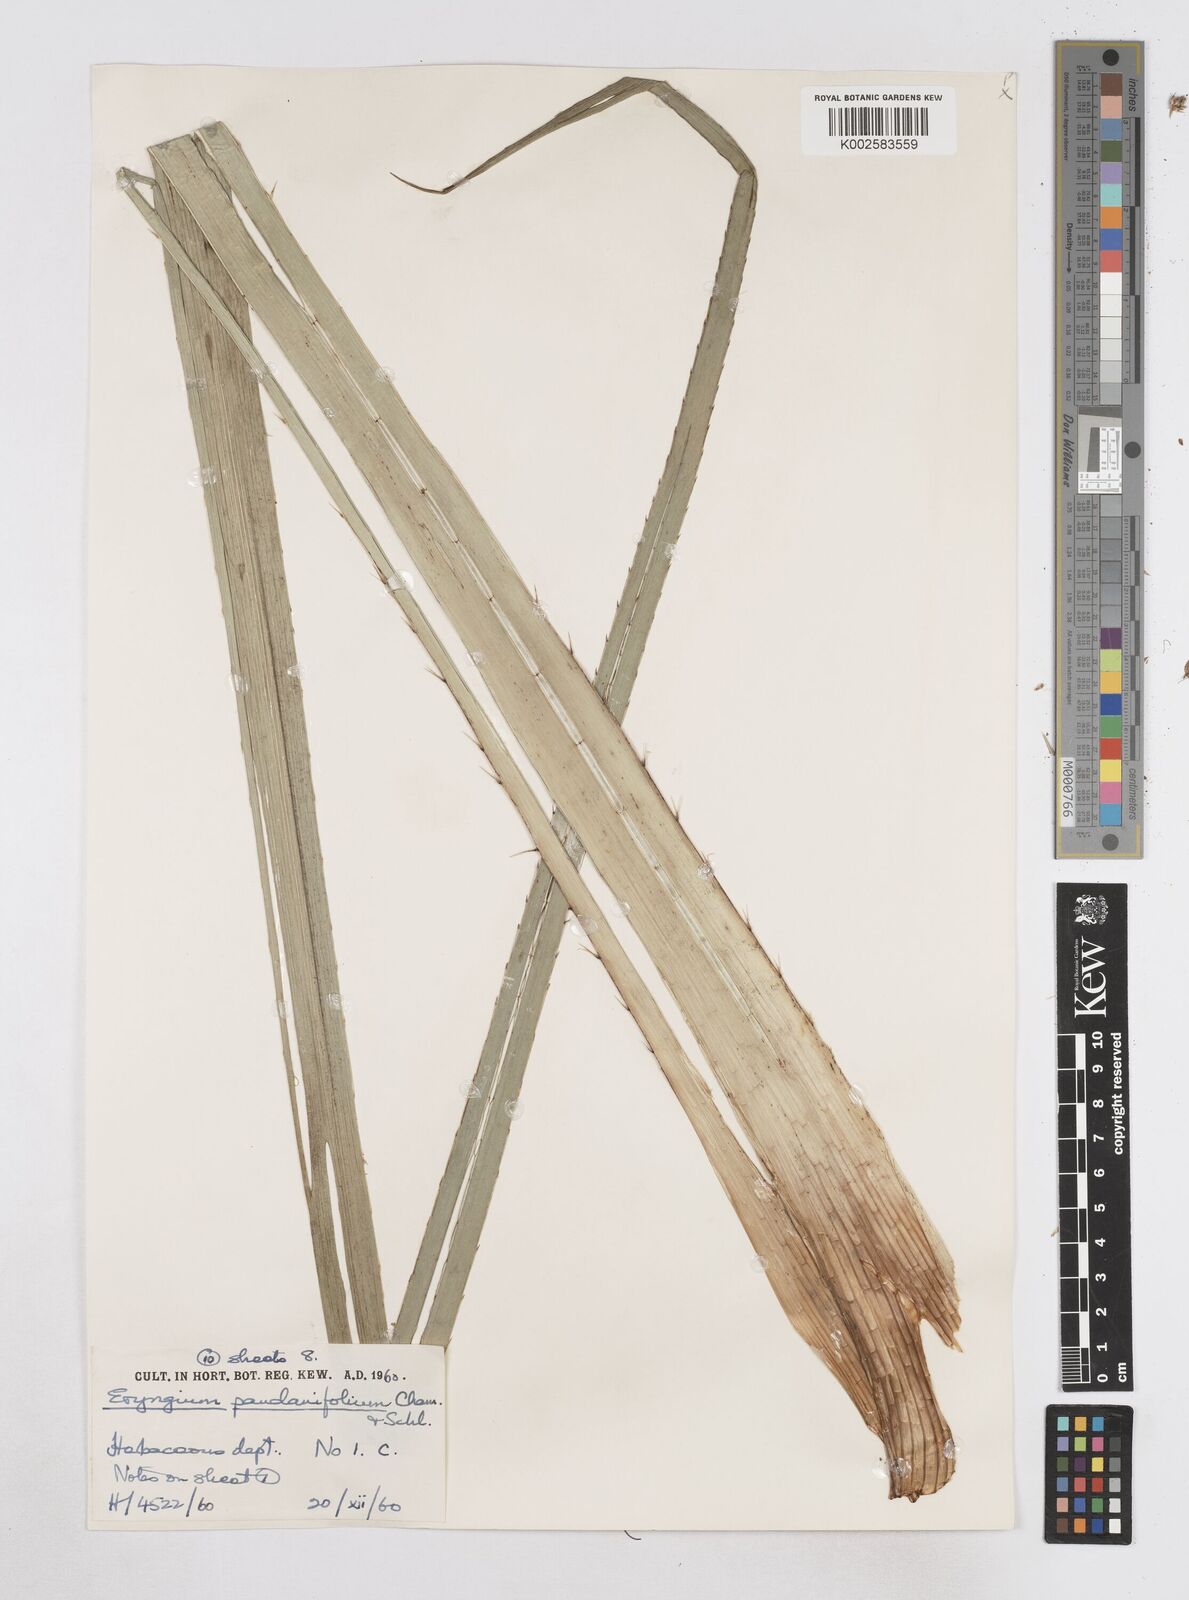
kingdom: Plantae
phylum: Tracheophyta
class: Magnoliopsida
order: Apiales
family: Apiaceae
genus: Eryngium
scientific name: Eryngium pandanifolium
